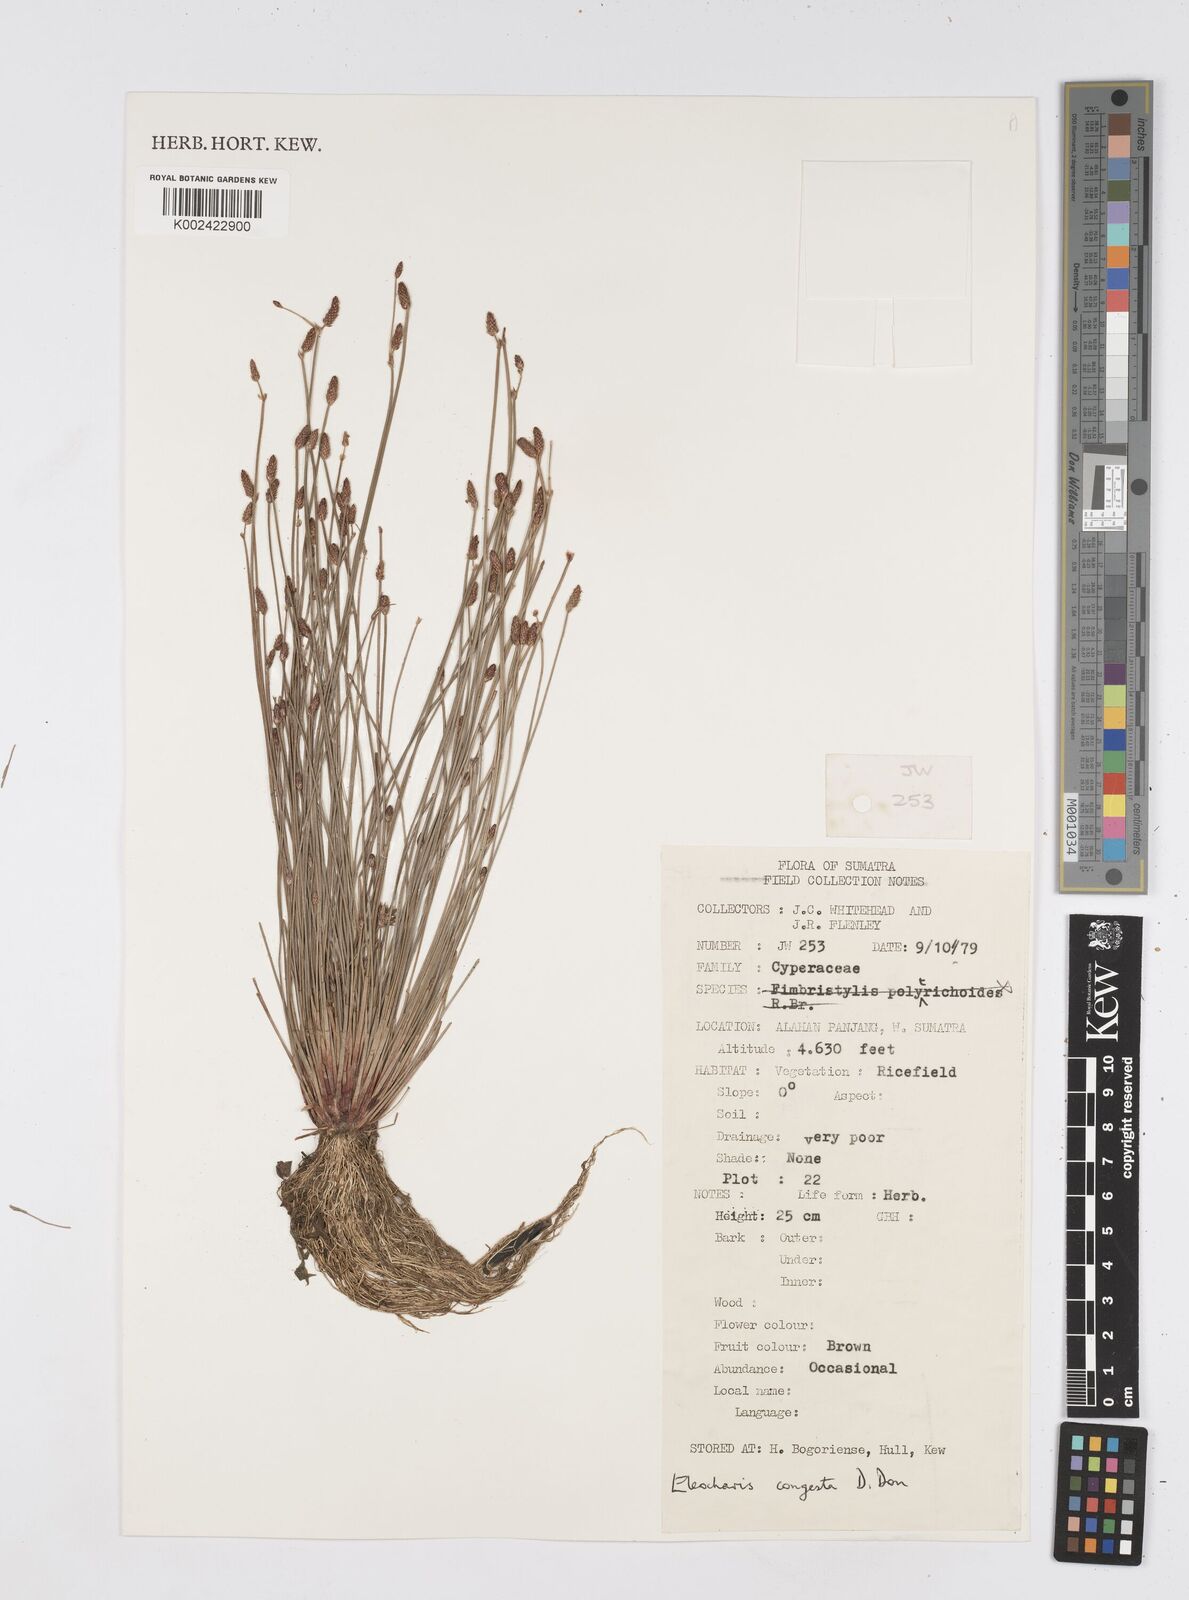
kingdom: Plantae
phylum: Tracheophyta
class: Liliopsida
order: Poales
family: Cyperaceae
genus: Eleocharis
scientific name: Eleocharis congesta
